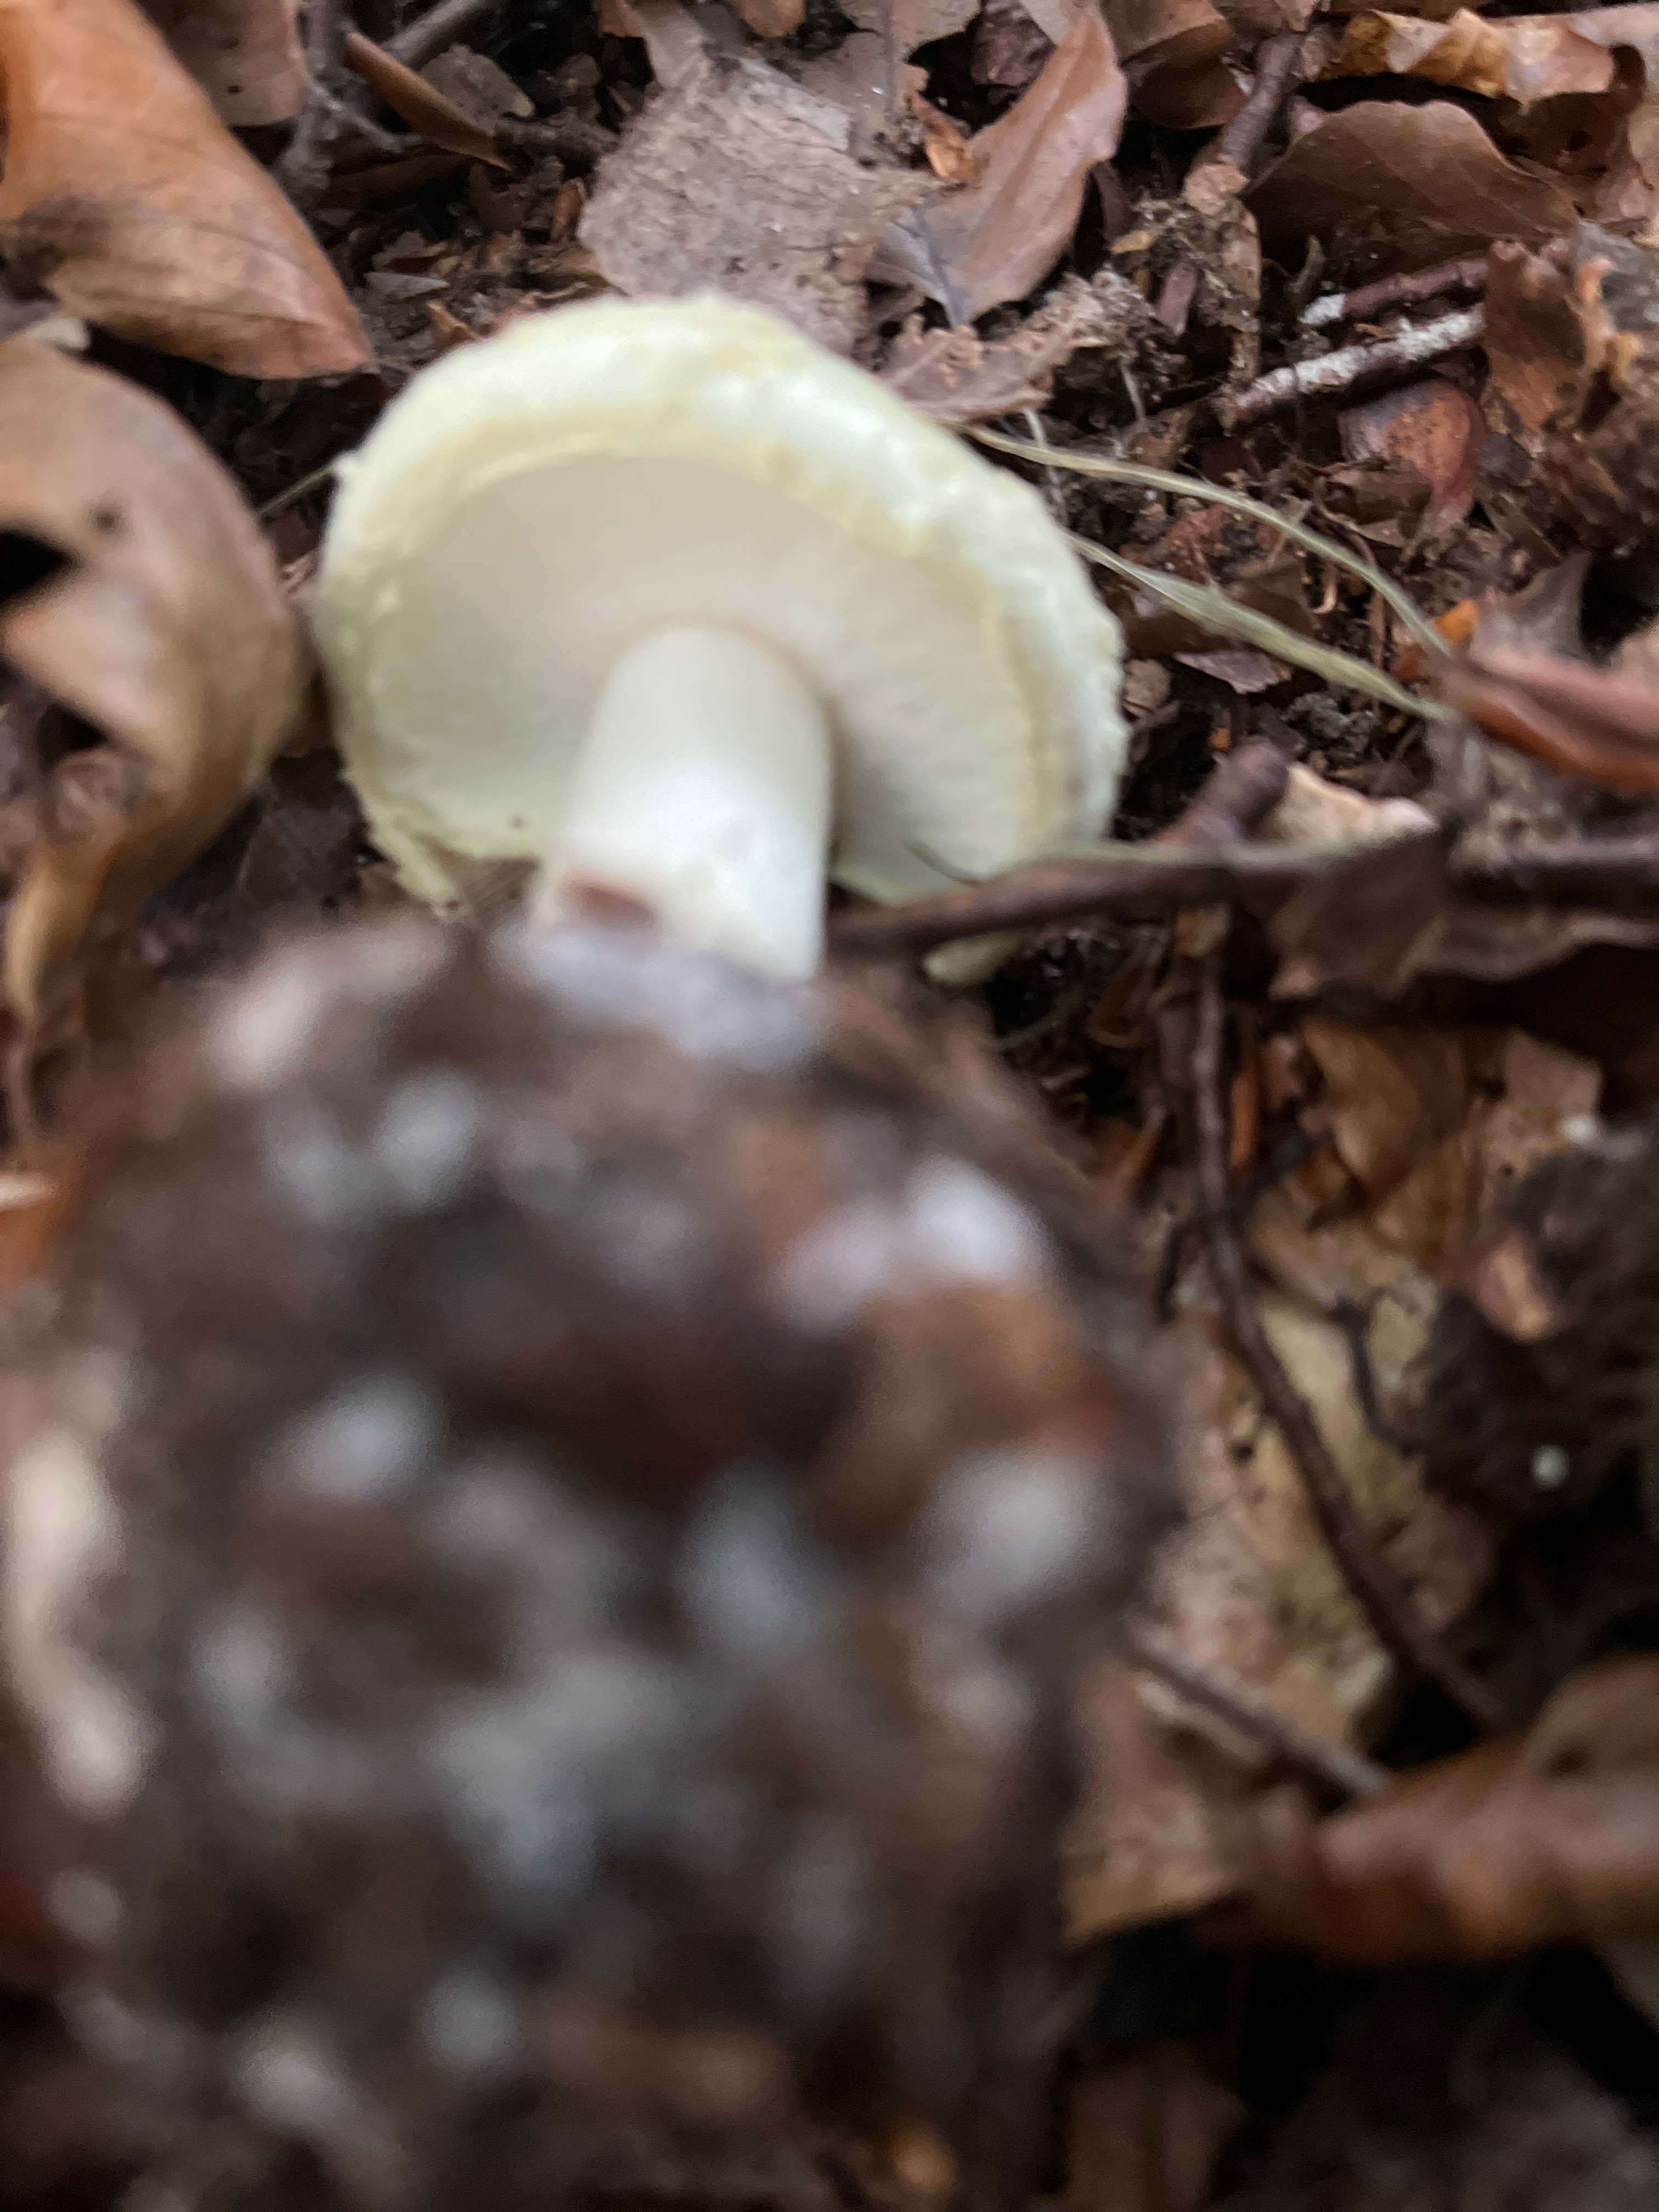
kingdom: Fungi
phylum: Basidiomycota
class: Agaricomycetes
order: Agaricales
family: Amanitaceae
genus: Amanita
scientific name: Amanita citrina
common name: kugleknoldet fluesvamp
